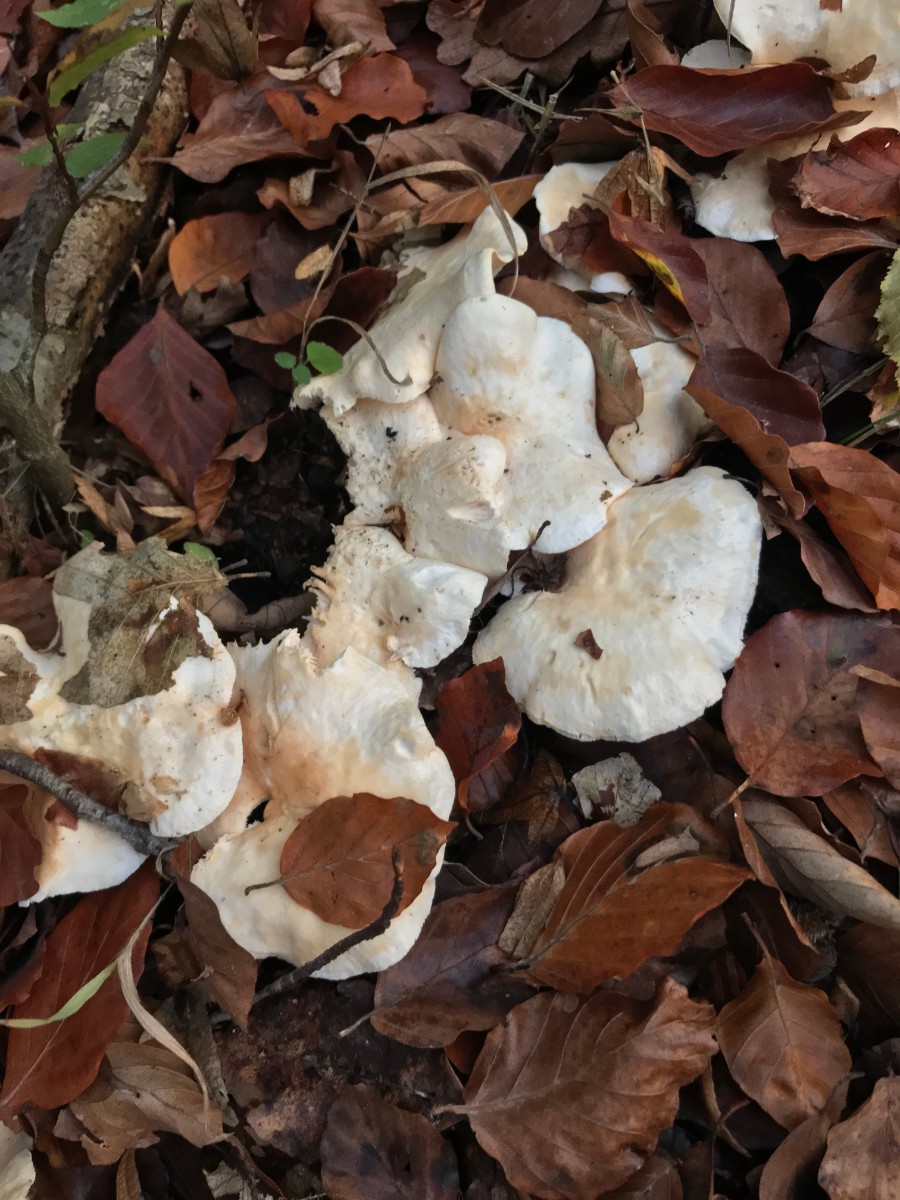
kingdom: Fungi
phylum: Basidiomycota
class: Agaricomycetes
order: Cantharellales
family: Hydnaceae
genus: Hydnum
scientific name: Hydnum repandum
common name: almindelig pigsvamp
